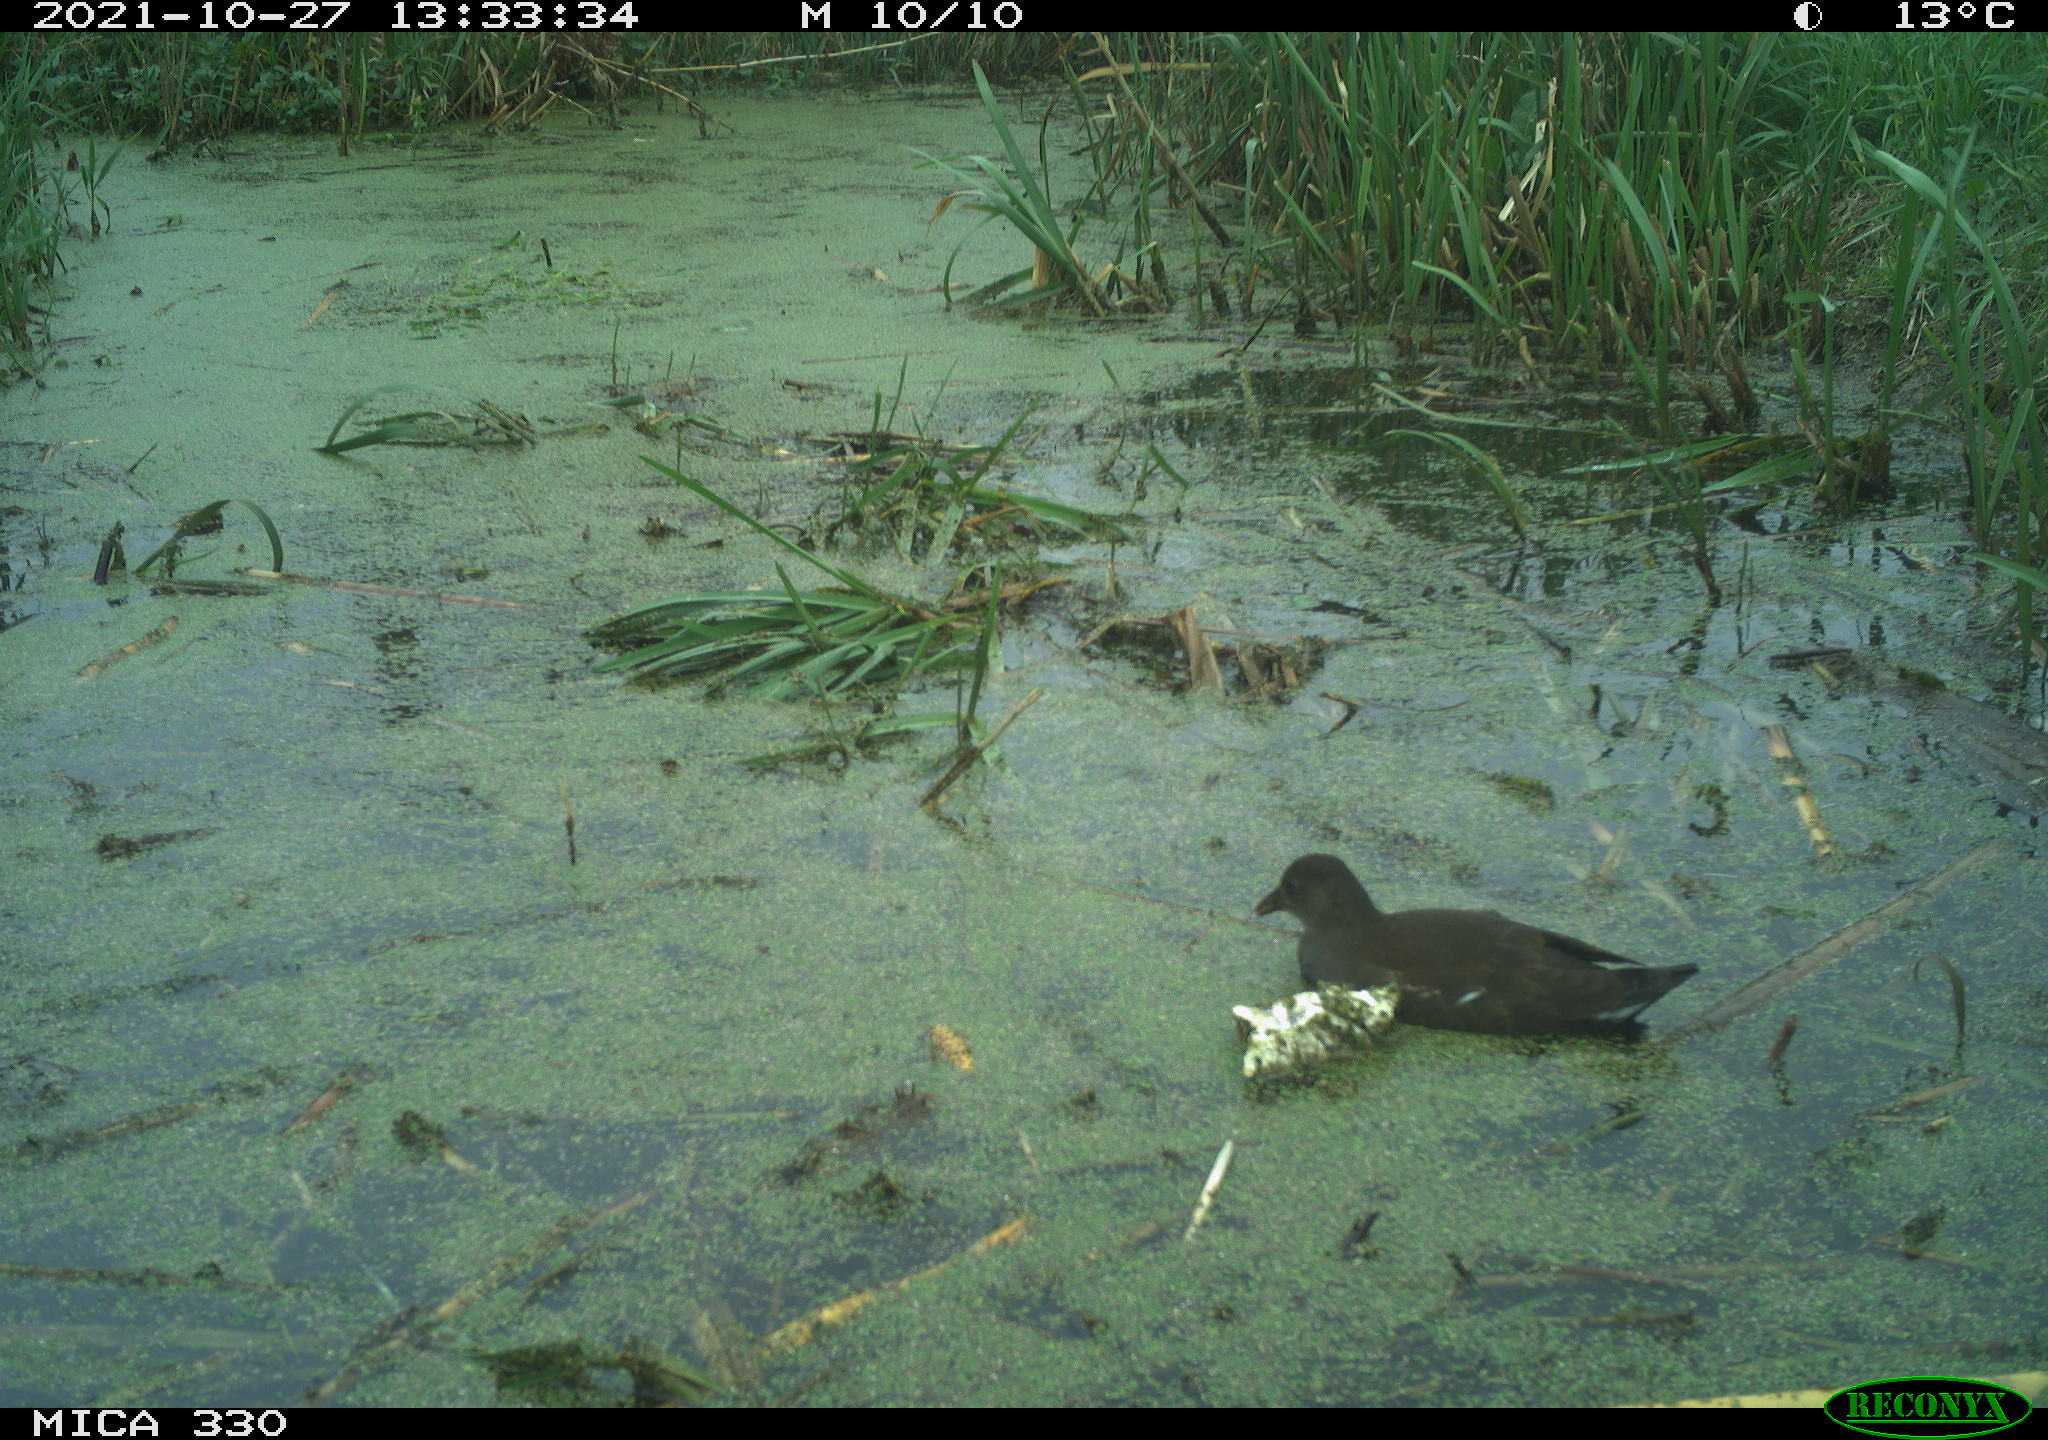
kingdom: Animalia
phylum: Chordata
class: Aves
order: Gruiformes
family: Rallidae
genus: Gallinula
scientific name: Gallinula chloropus
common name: Common moorhen
